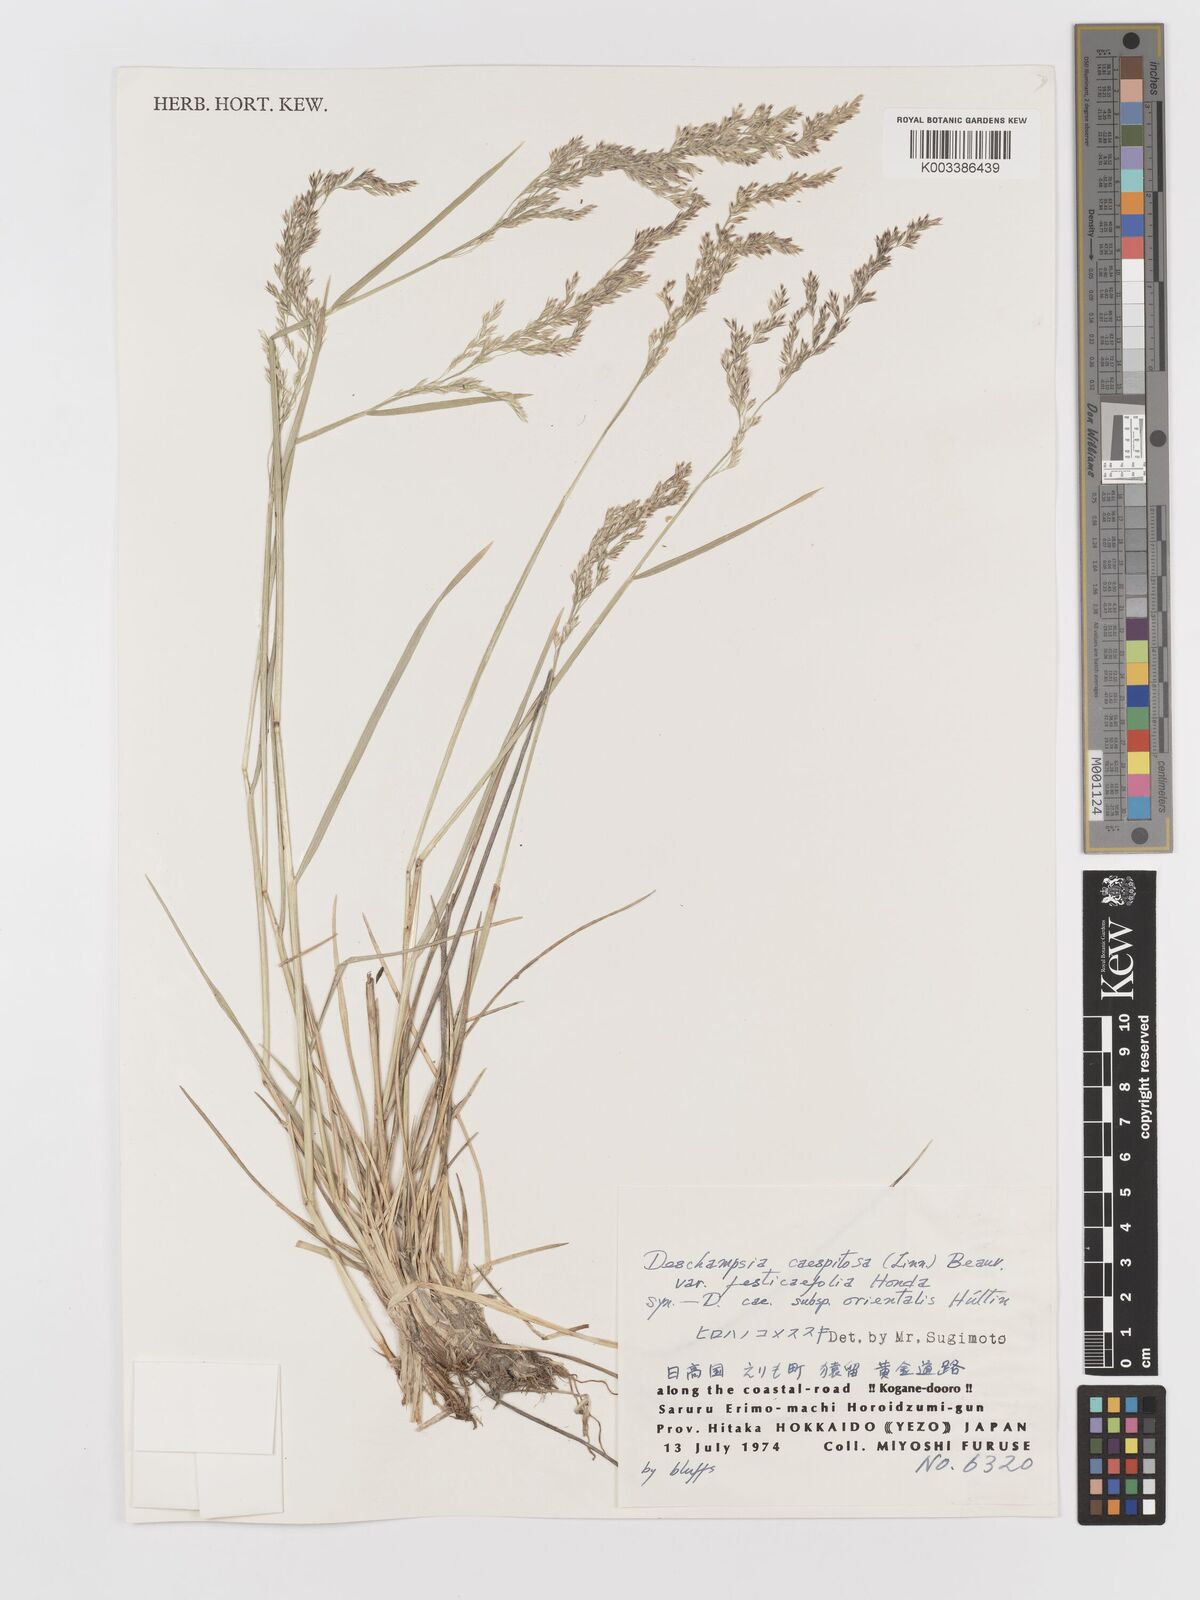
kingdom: Plantae
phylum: Tracheophyta
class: Liliopsida
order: Poales
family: Poaceae
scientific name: Poaceae
